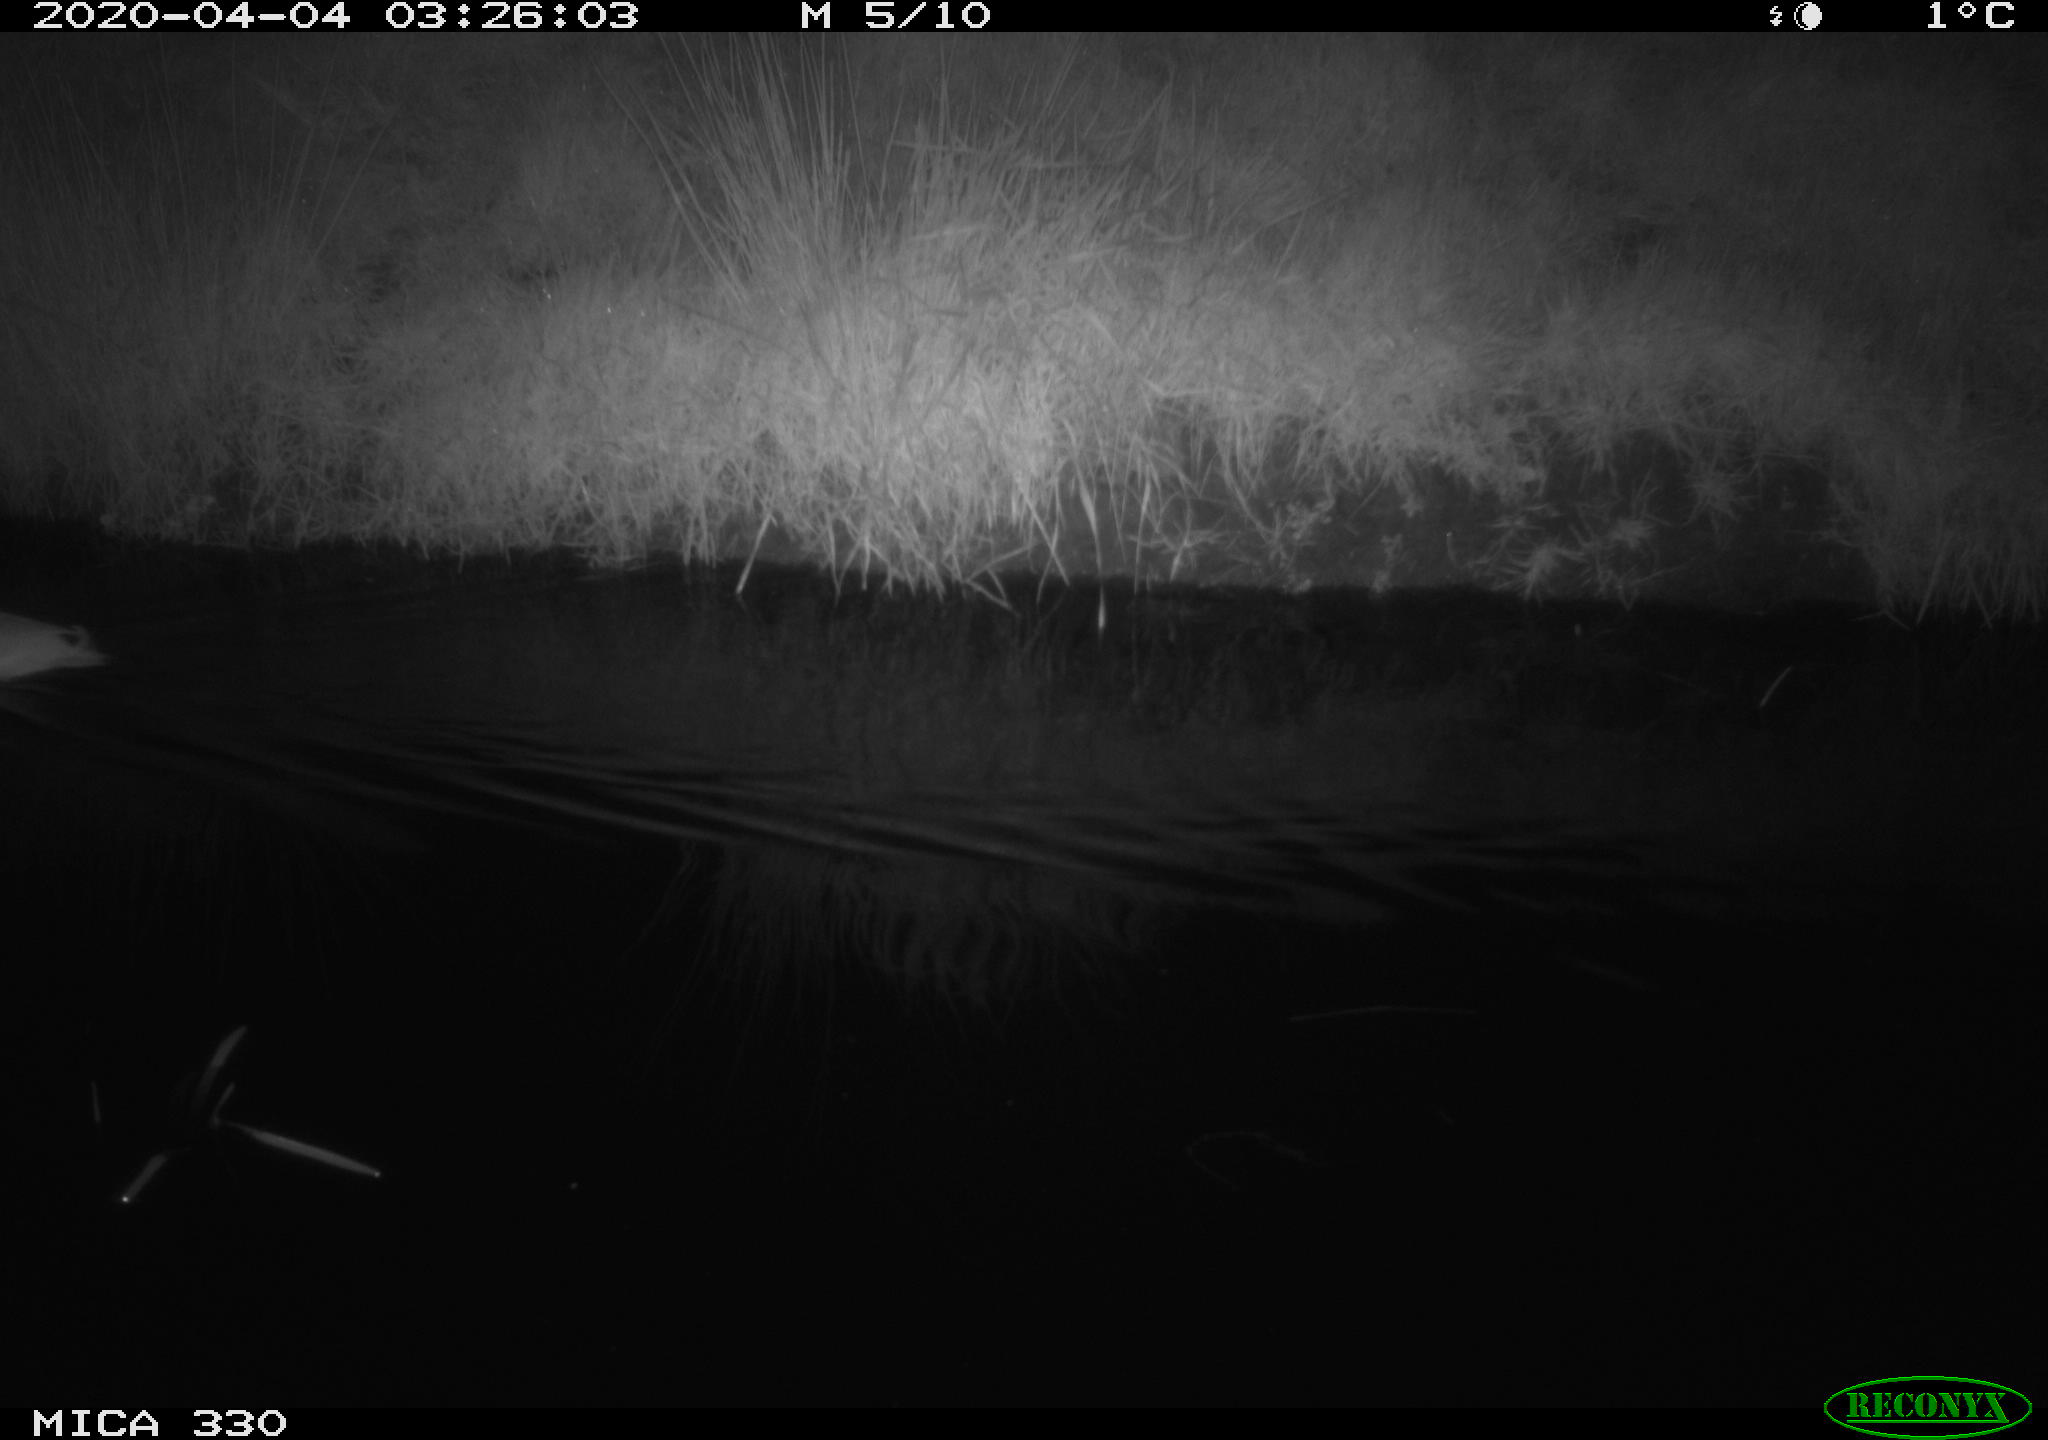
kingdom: Animalia
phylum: Chordata
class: Aves
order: Anseriformes
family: Anatidae
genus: Anas
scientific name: Anas platyrhynchos
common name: Mallard
